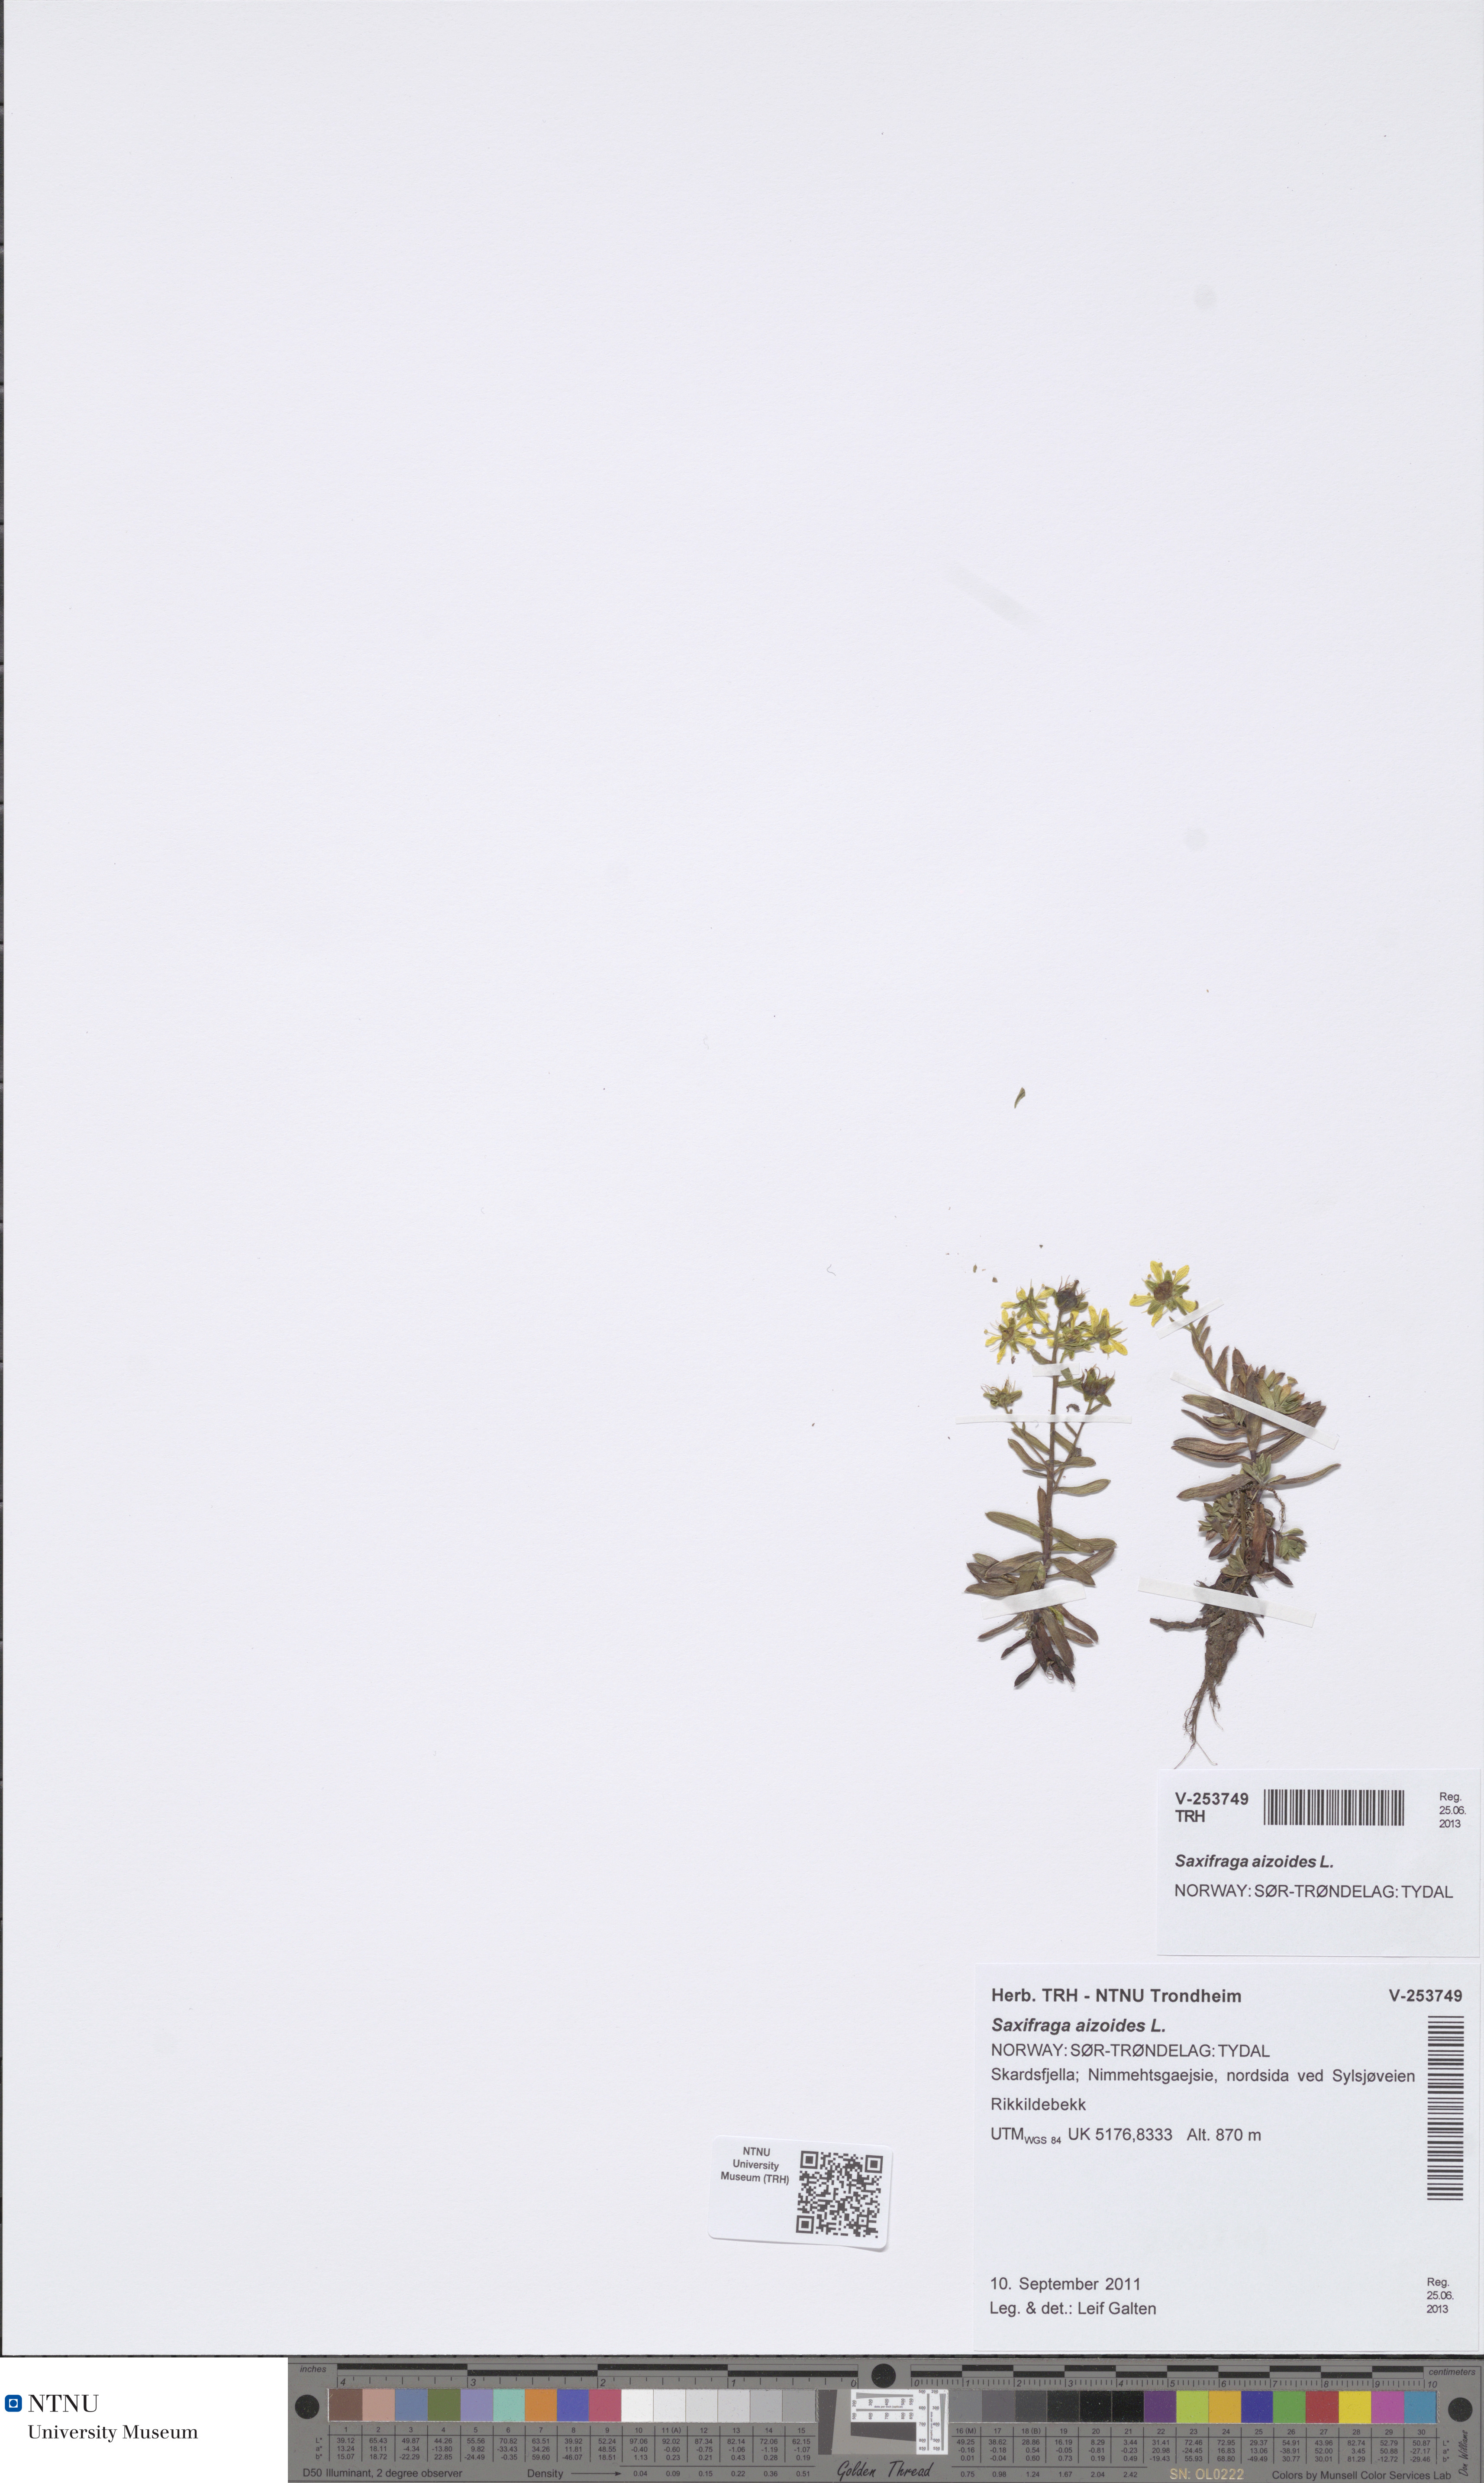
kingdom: Plantae
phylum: Tracheophyta
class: Magnoliopsida
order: Saxifragales
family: Saxifragaceae
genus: Saxifraga
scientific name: Saxifraga aizoides
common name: Yellow mountain saxifrage
